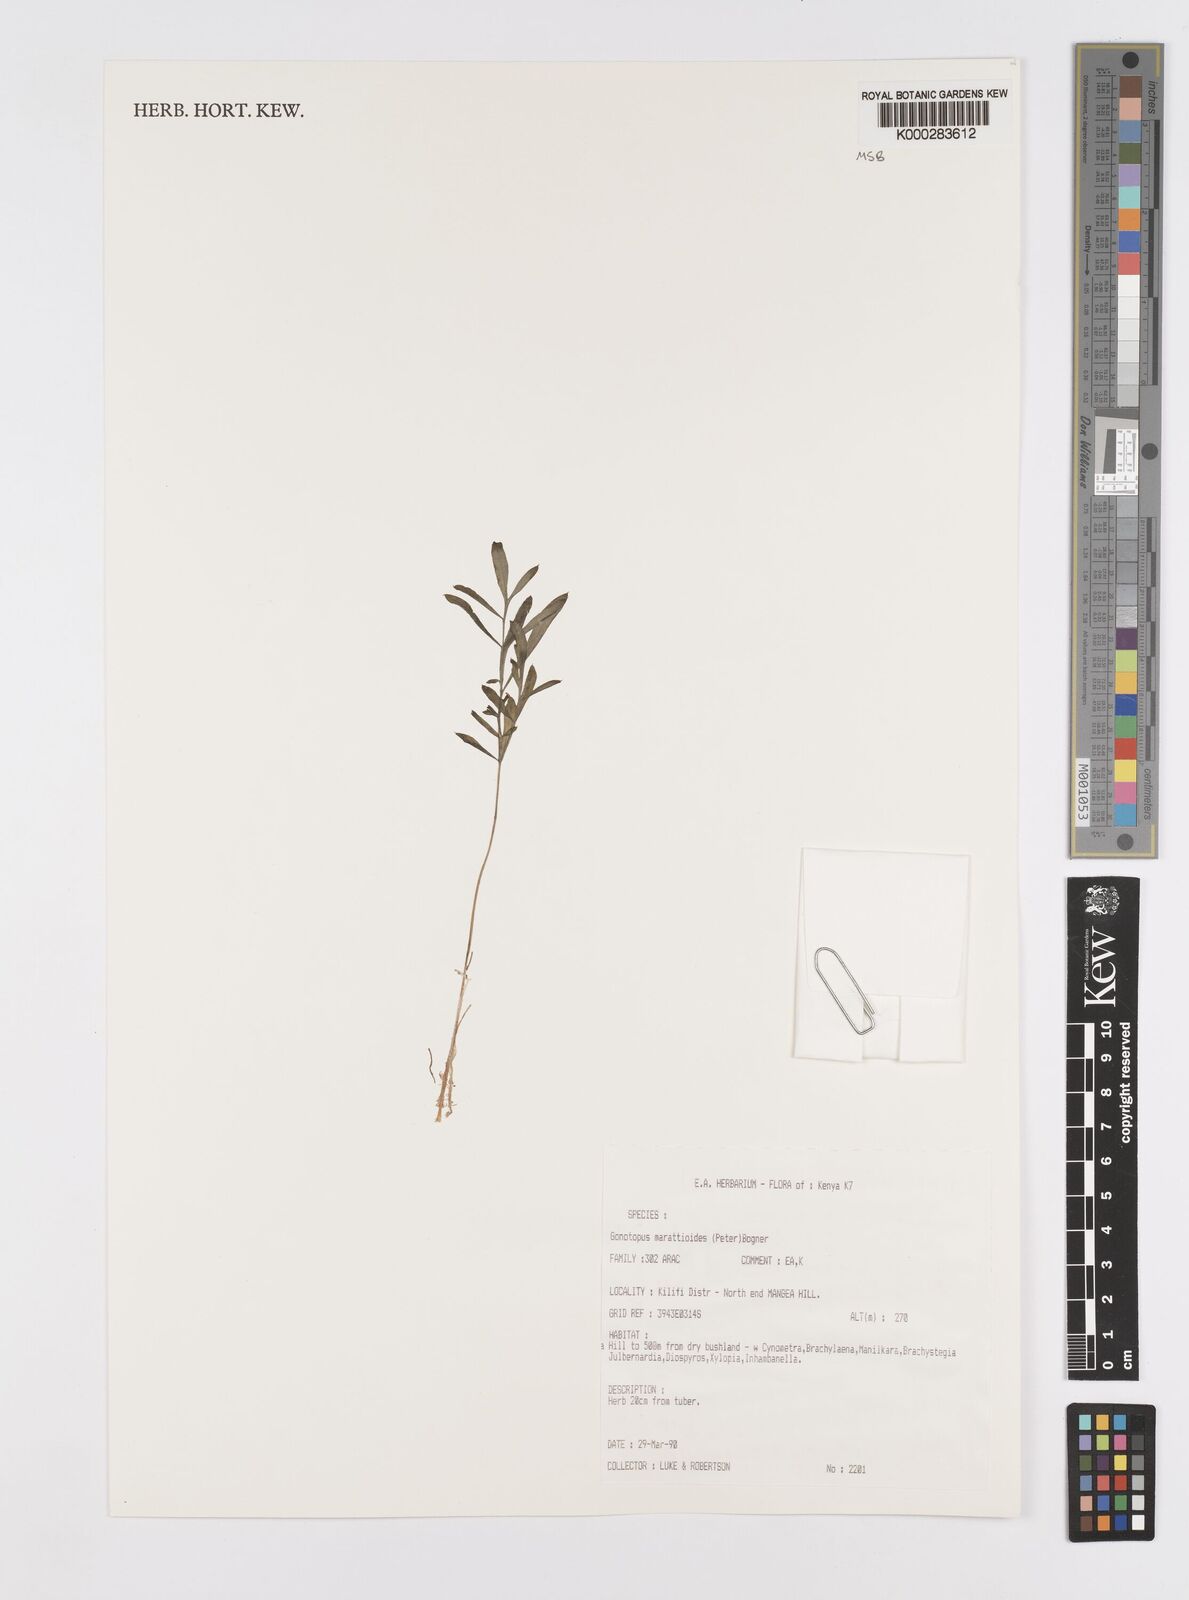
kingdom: Plantae
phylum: Tracheophyta
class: Liliopsida
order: Alismatales
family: Araceae
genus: Gonatopus
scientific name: Gonatopus marattioides
